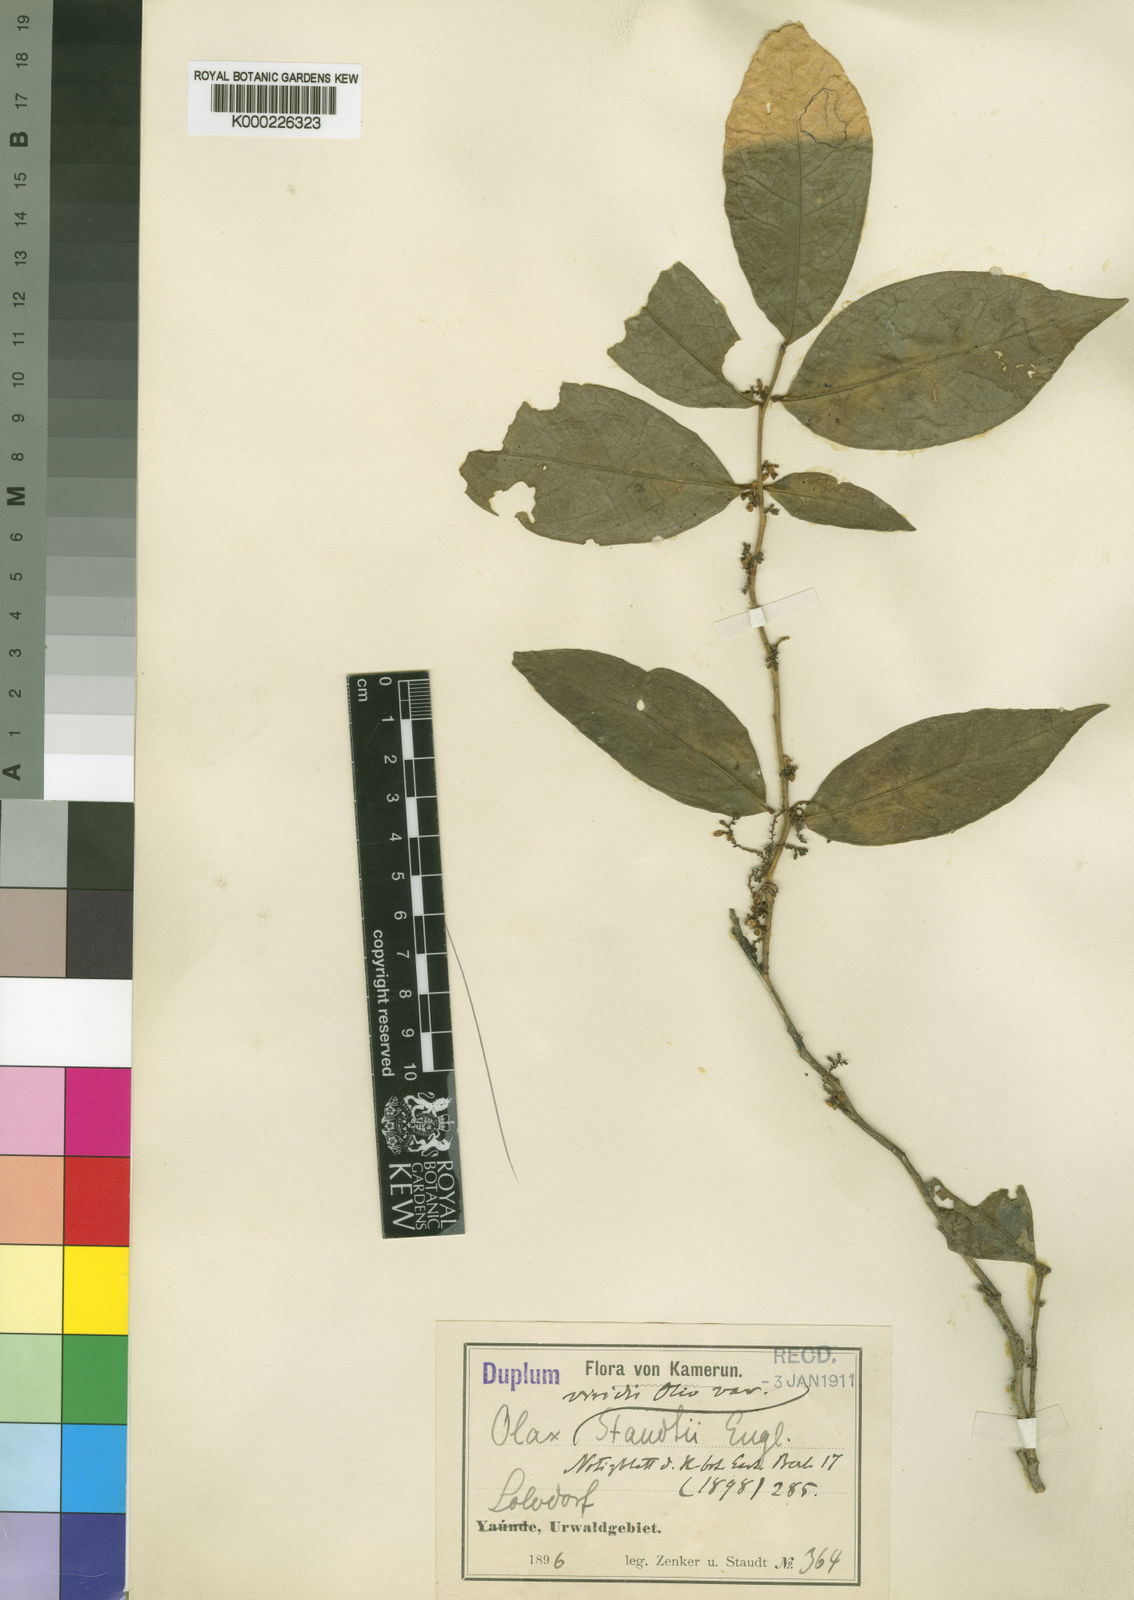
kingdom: Plantae
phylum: Tracheophyta
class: Magnoliopsida
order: Santalales
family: Olacaceae
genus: Olax
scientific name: Olax staudtii
